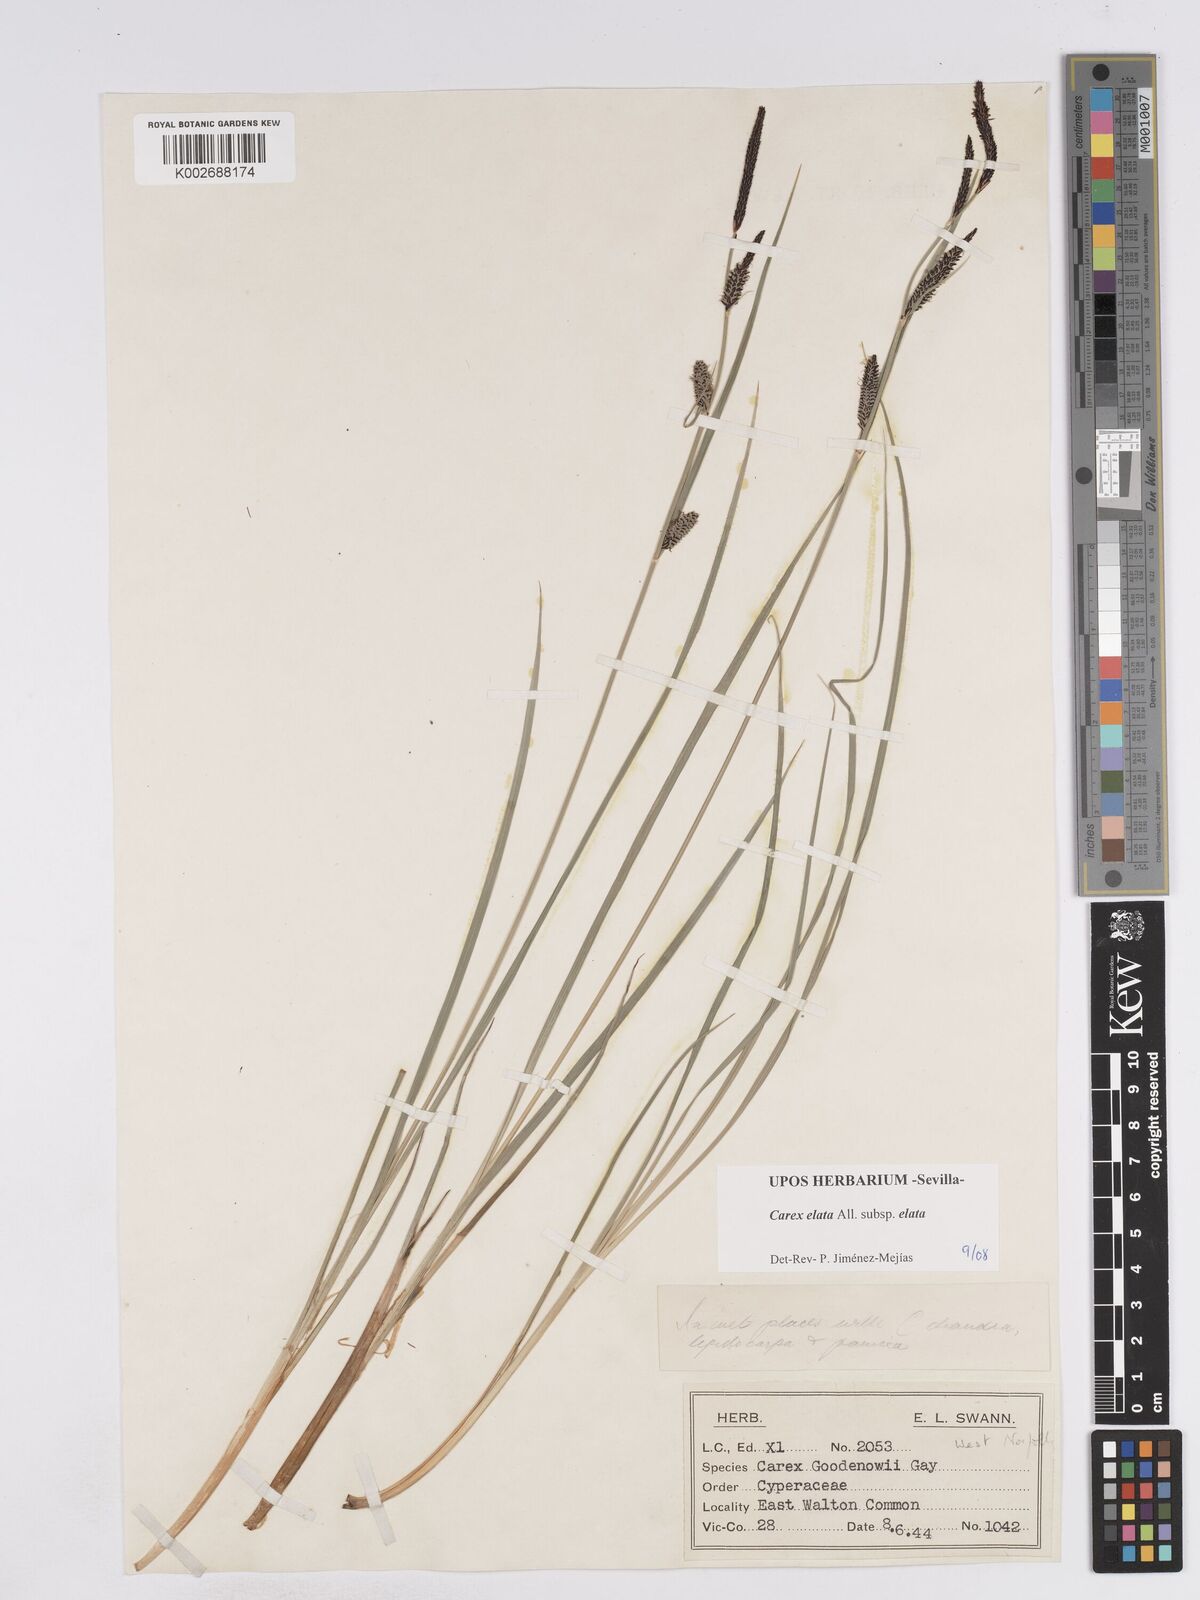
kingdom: Plantae
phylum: Tracheophyta
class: Liliopsida
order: Poales
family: Cyperaceae
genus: Carex
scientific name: Carex elata
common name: Tufted sedge
